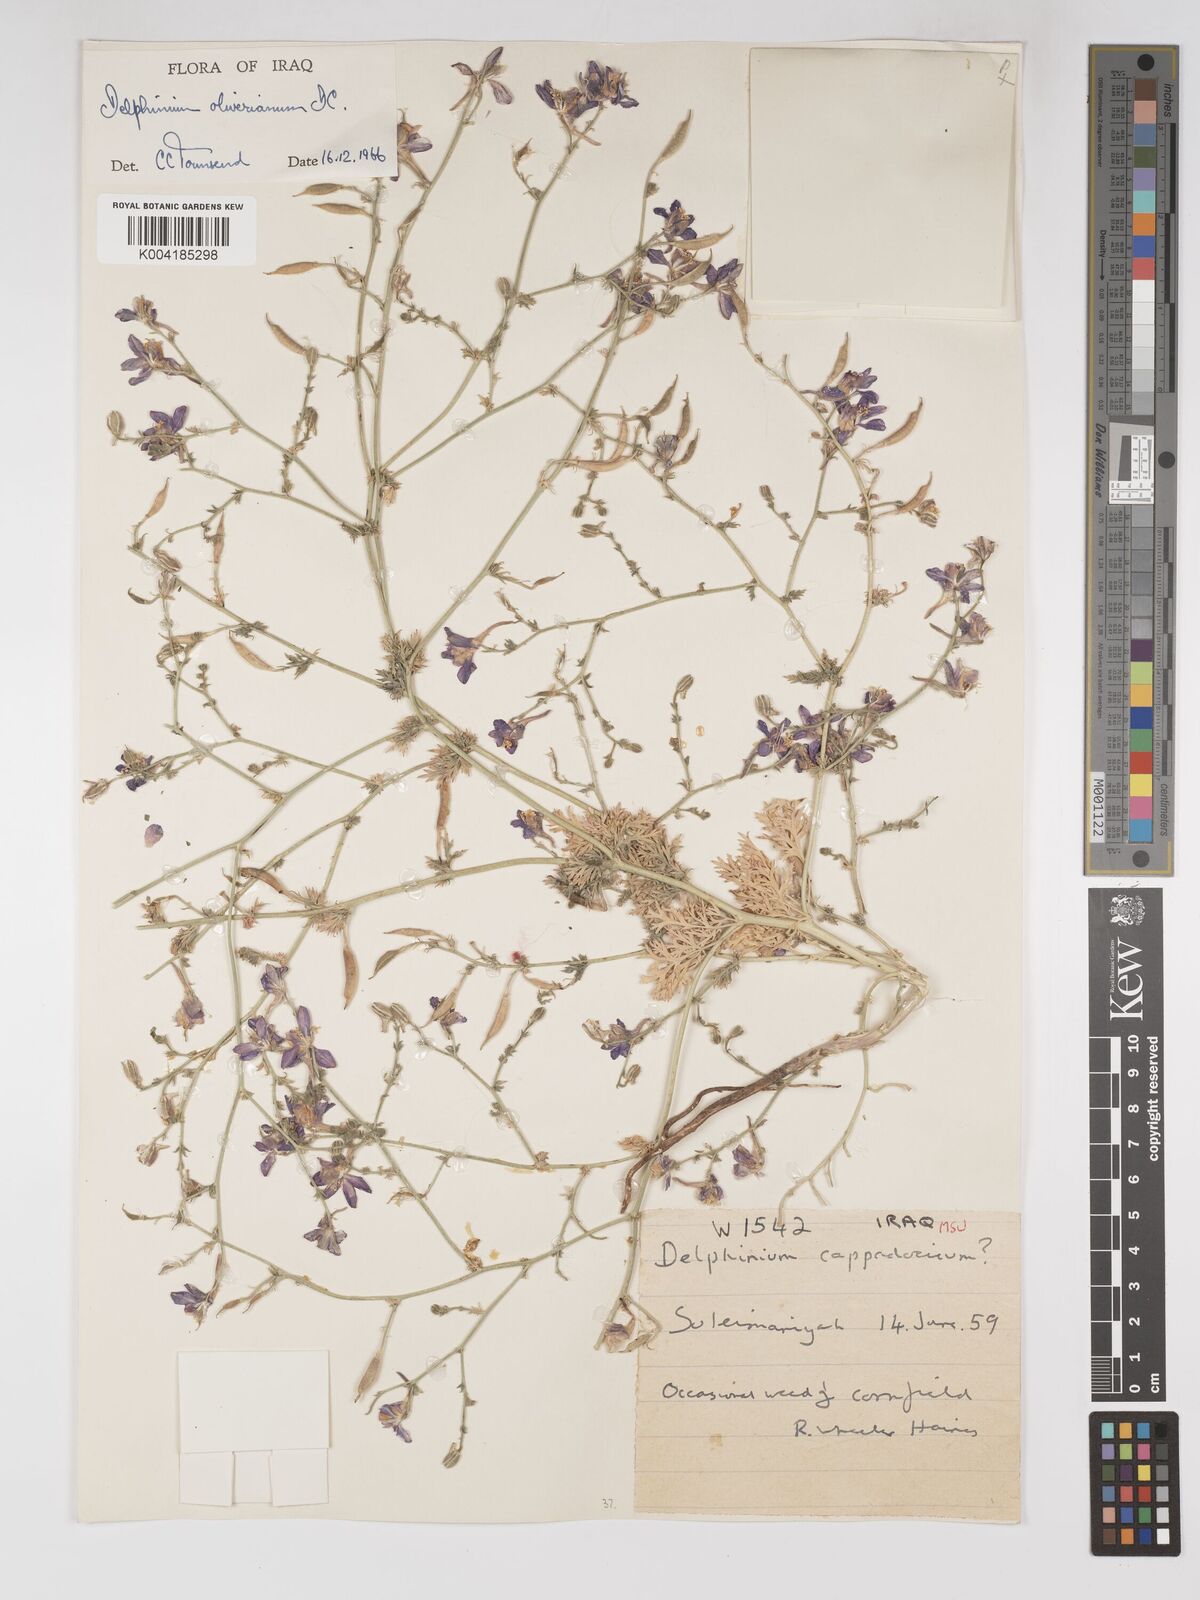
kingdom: Plantae
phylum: Tracheophyta
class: Magnoliopsida
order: Ranunculales
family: Ranunculaceae
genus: Delphinium
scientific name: Delphinium oliverianum
